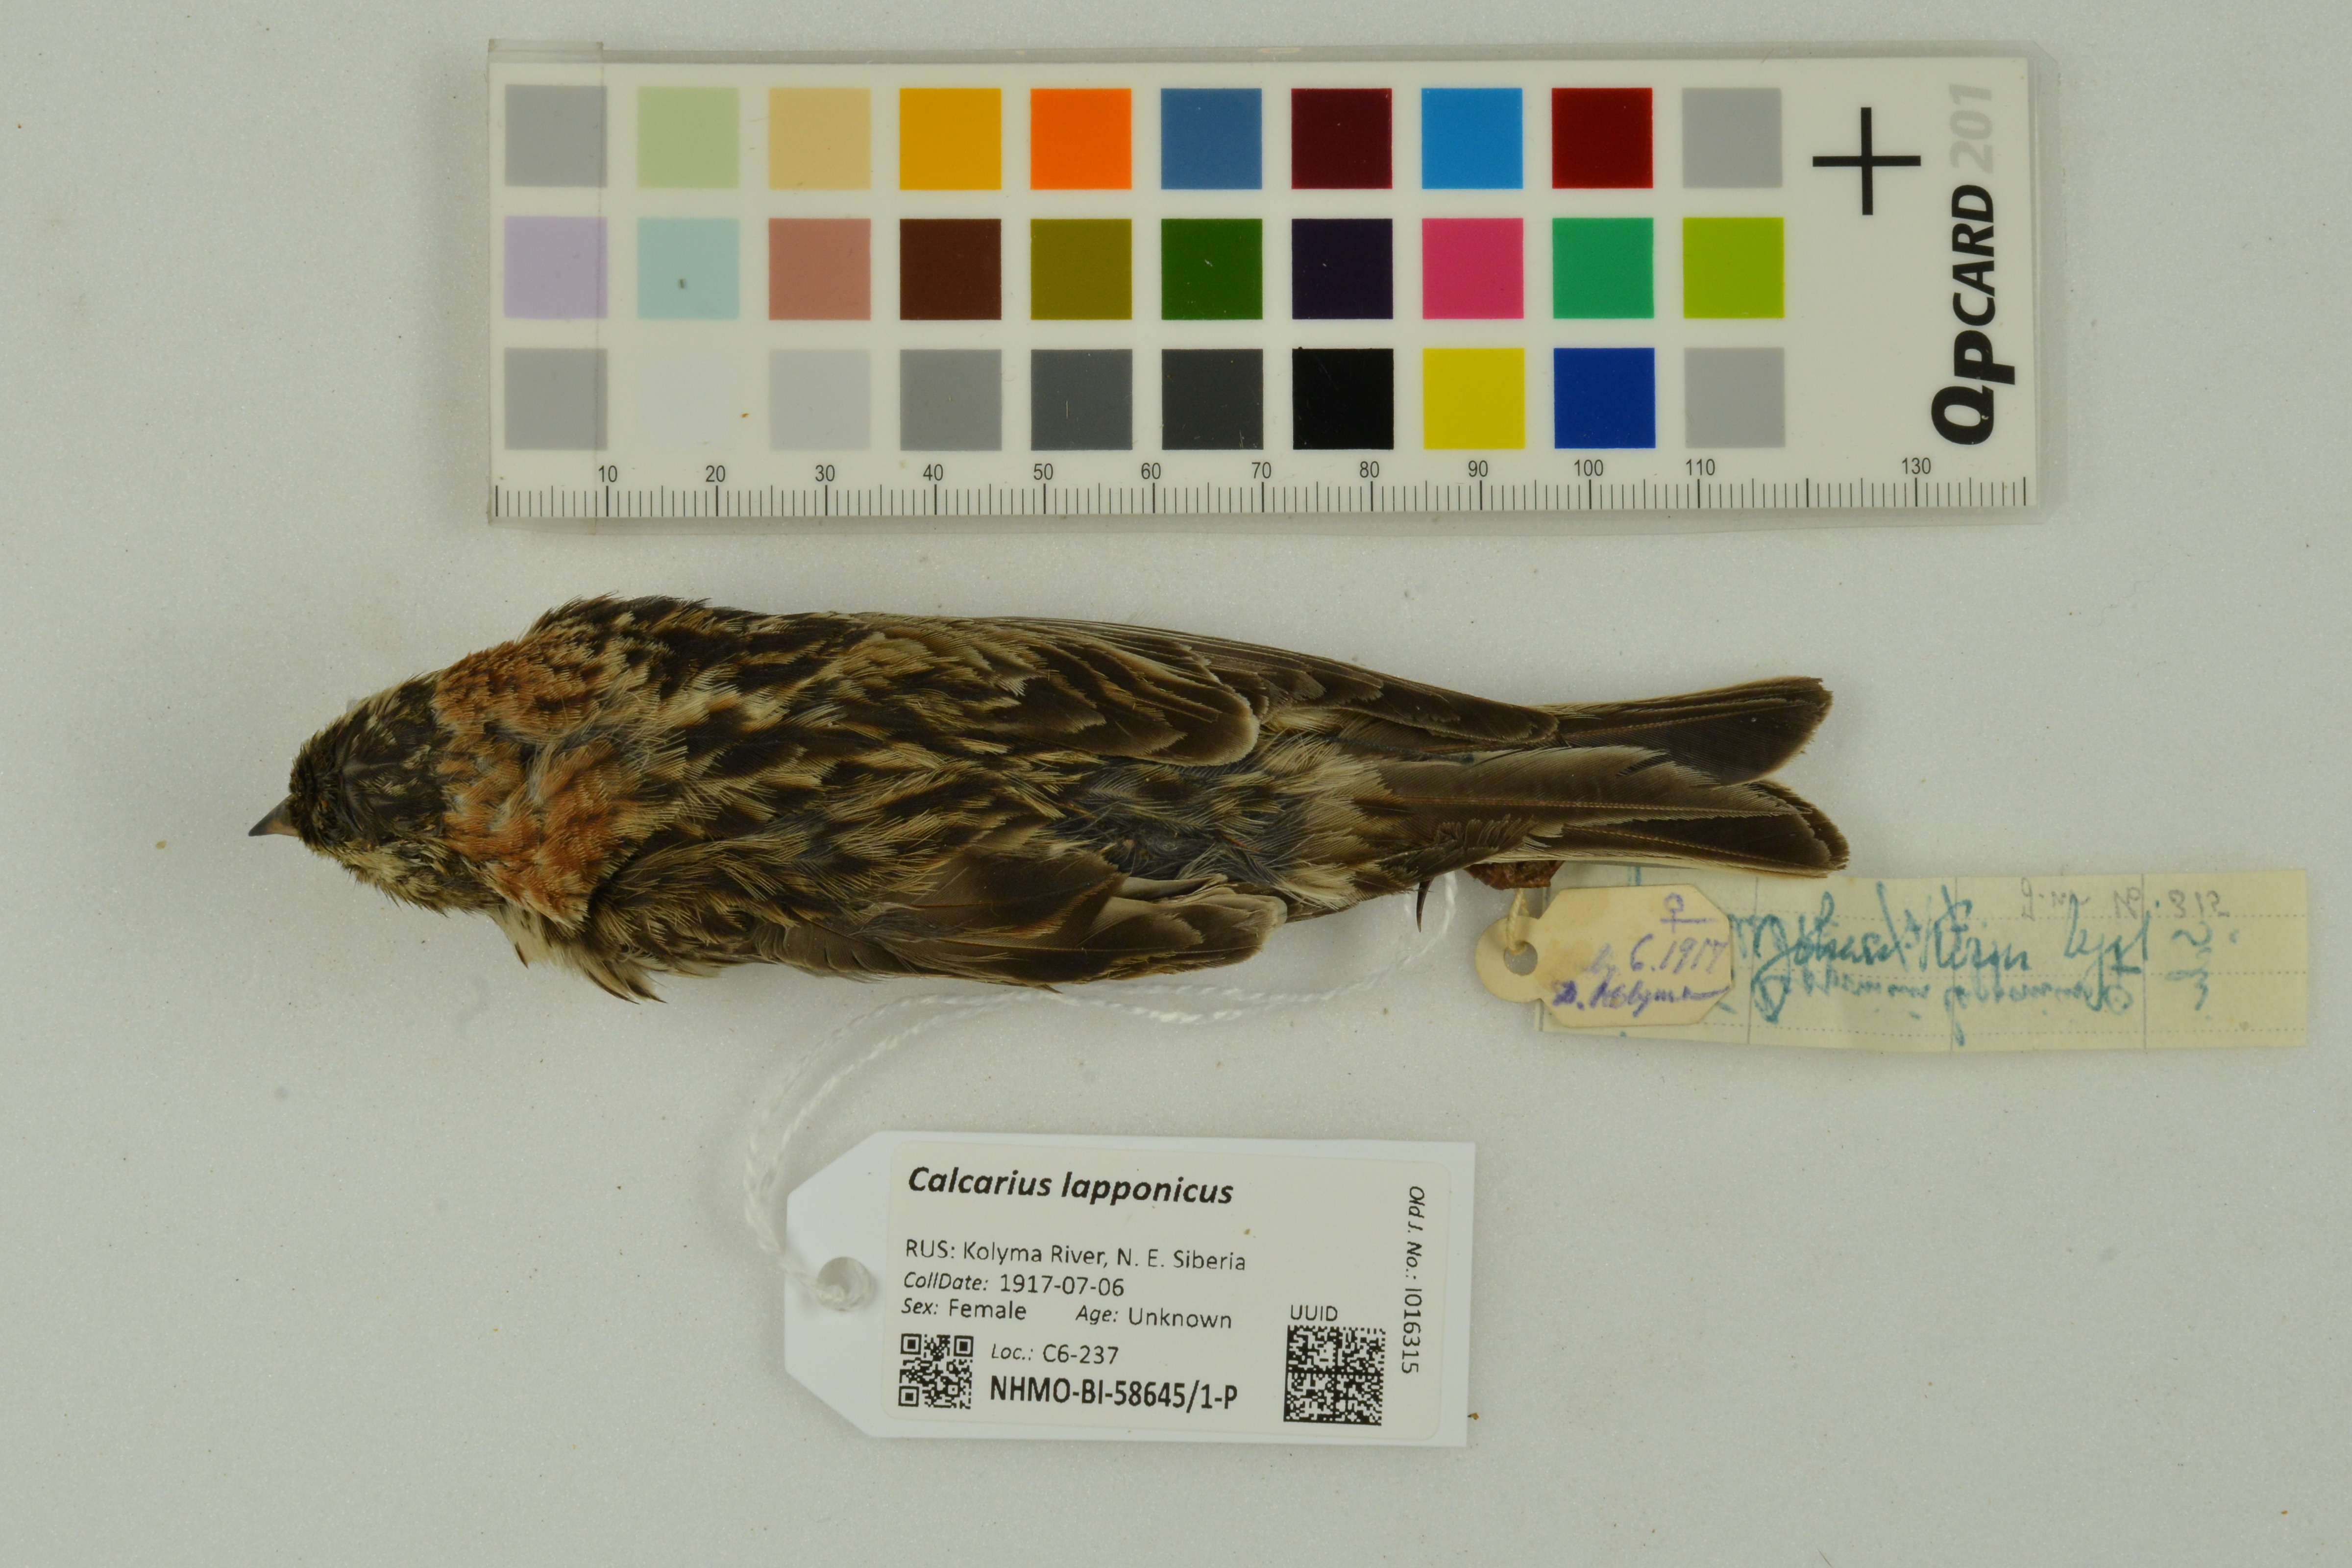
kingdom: Animalia
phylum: Chordata
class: Aves
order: Passeriformes
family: Calcariidae
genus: Calcarius
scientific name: Calcarius lapponicus
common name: Lapland longspur
